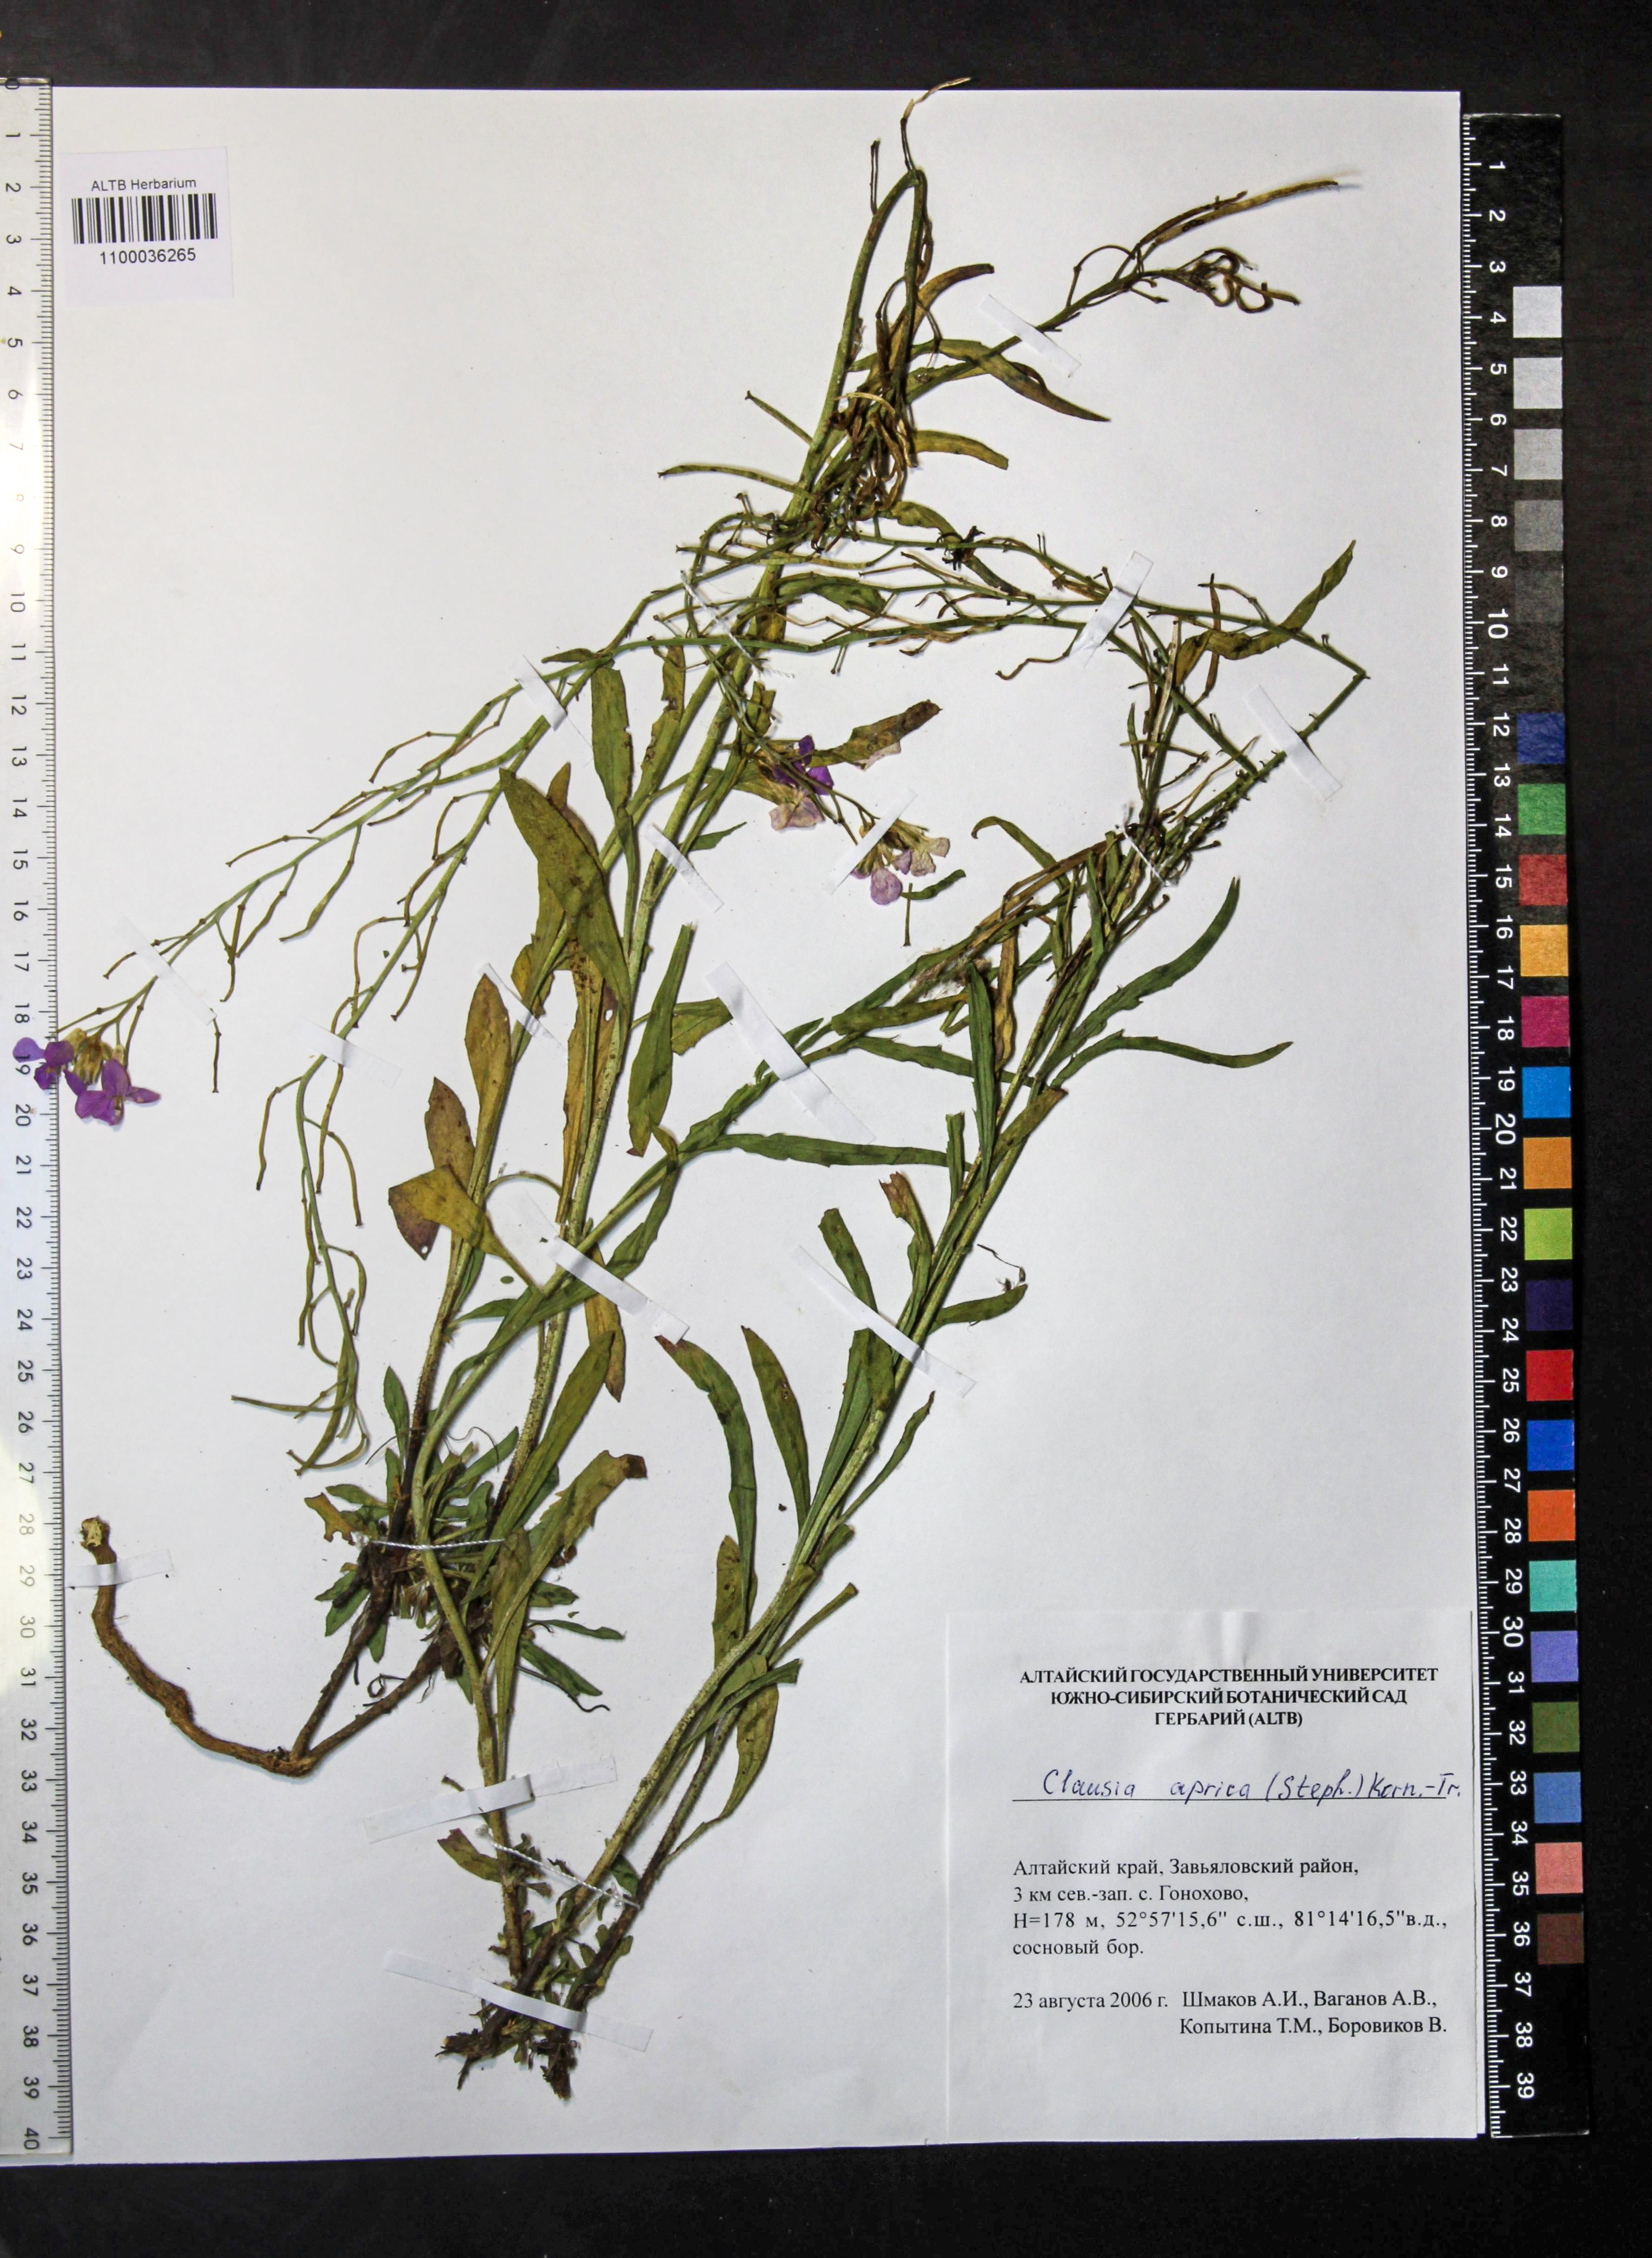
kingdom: Plantae
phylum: Tracheophyta
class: Magnoliopsida
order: Brassicales
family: Brassicaceae
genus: Clausia
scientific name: Clausia aprica
